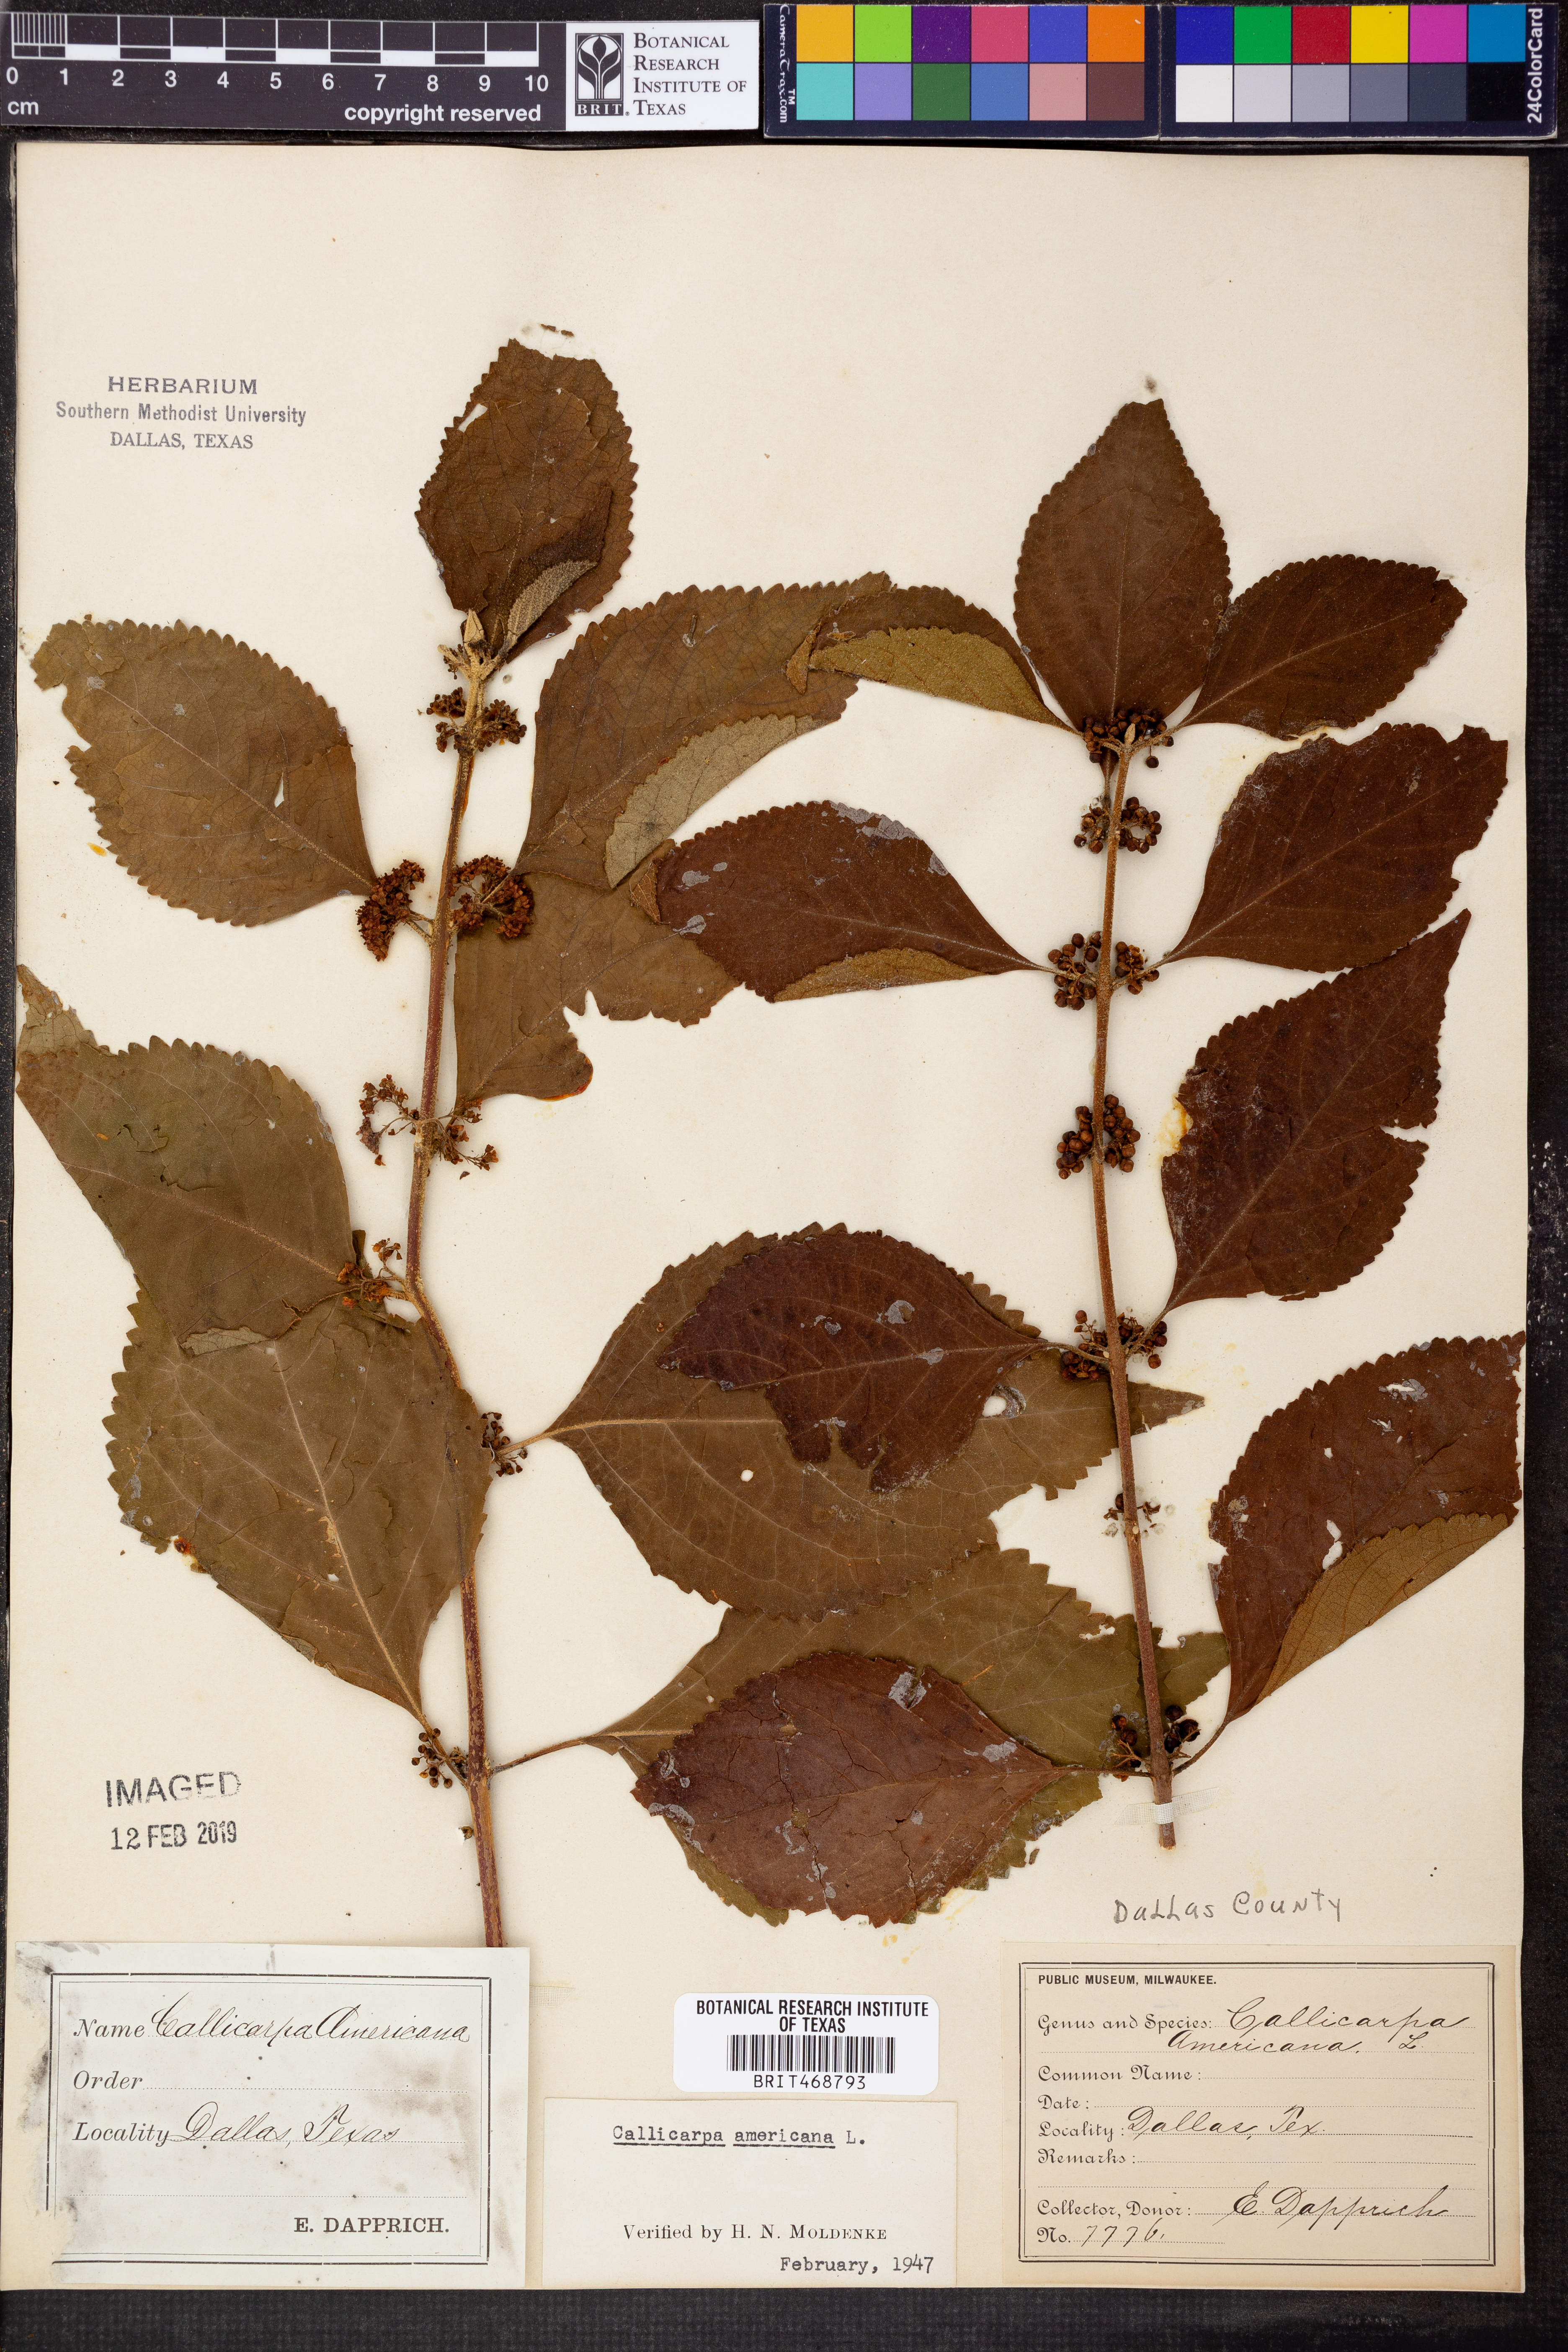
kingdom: Plantae
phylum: Tracheophyta
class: Magnoliopsida
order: Lamiales
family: Lamiaceae
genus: Callicarpa
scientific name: Callicarpa americana
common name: American beautyberry
